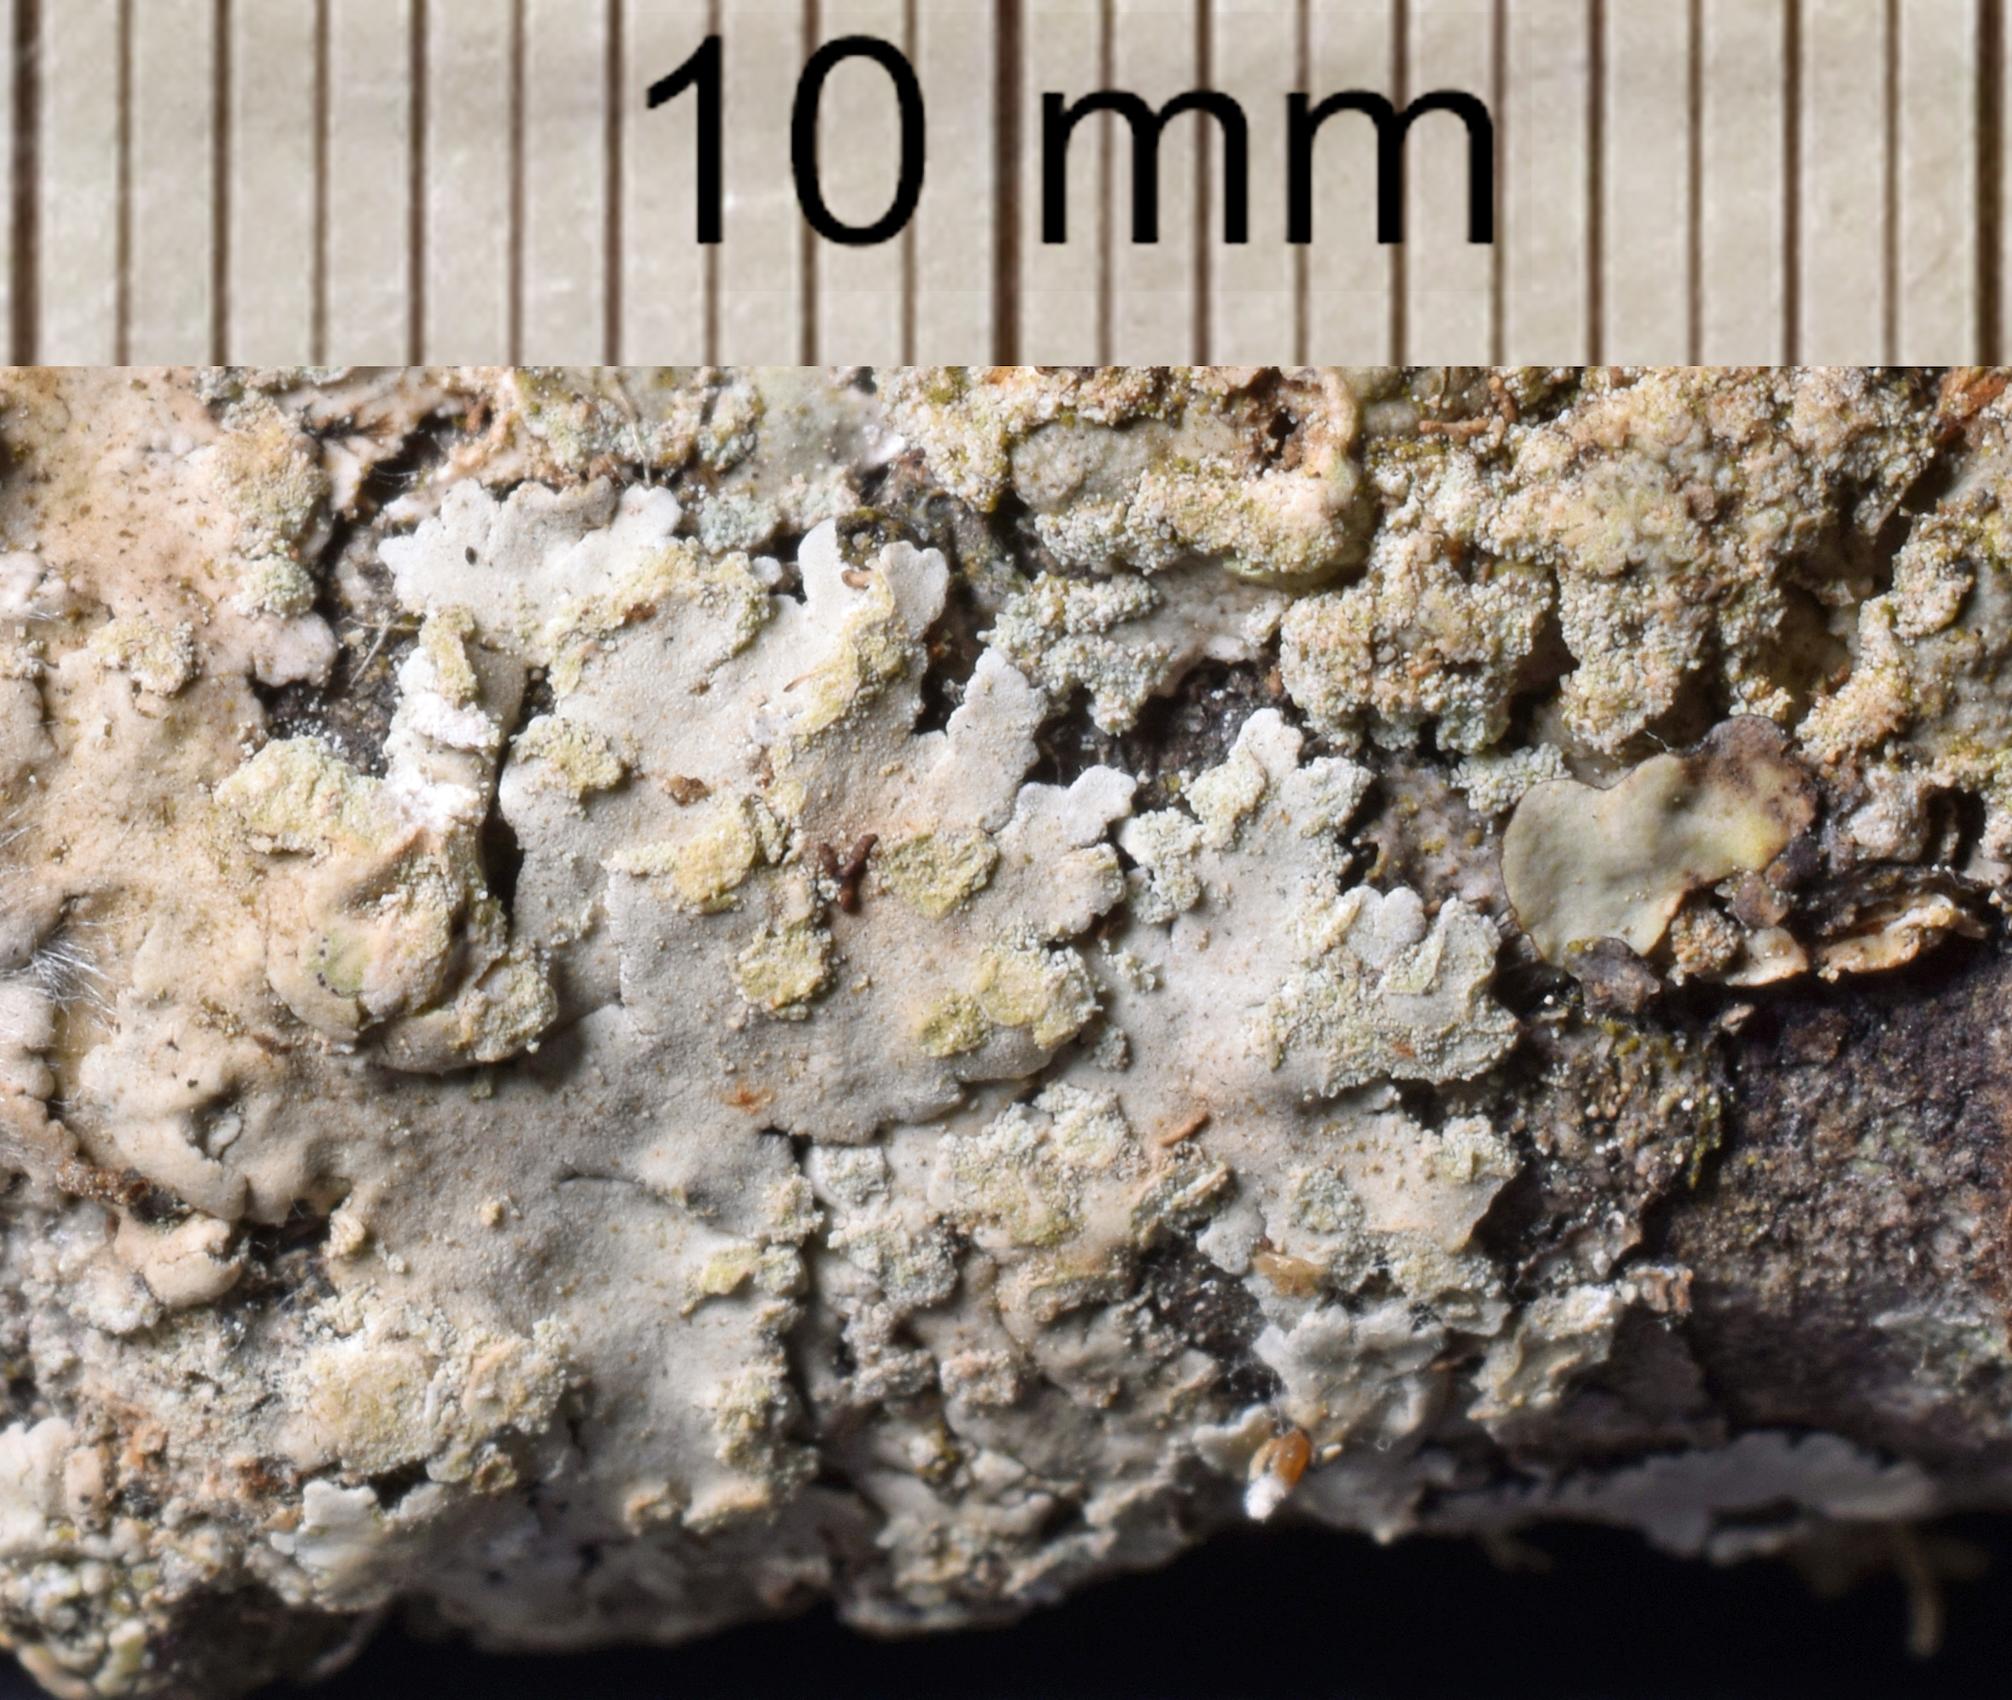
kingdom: Fungi
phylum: Ascomycota
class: Lecanoromycetes
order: Caliciales
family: Physciaceae
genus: Physcia
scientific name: Physcia
